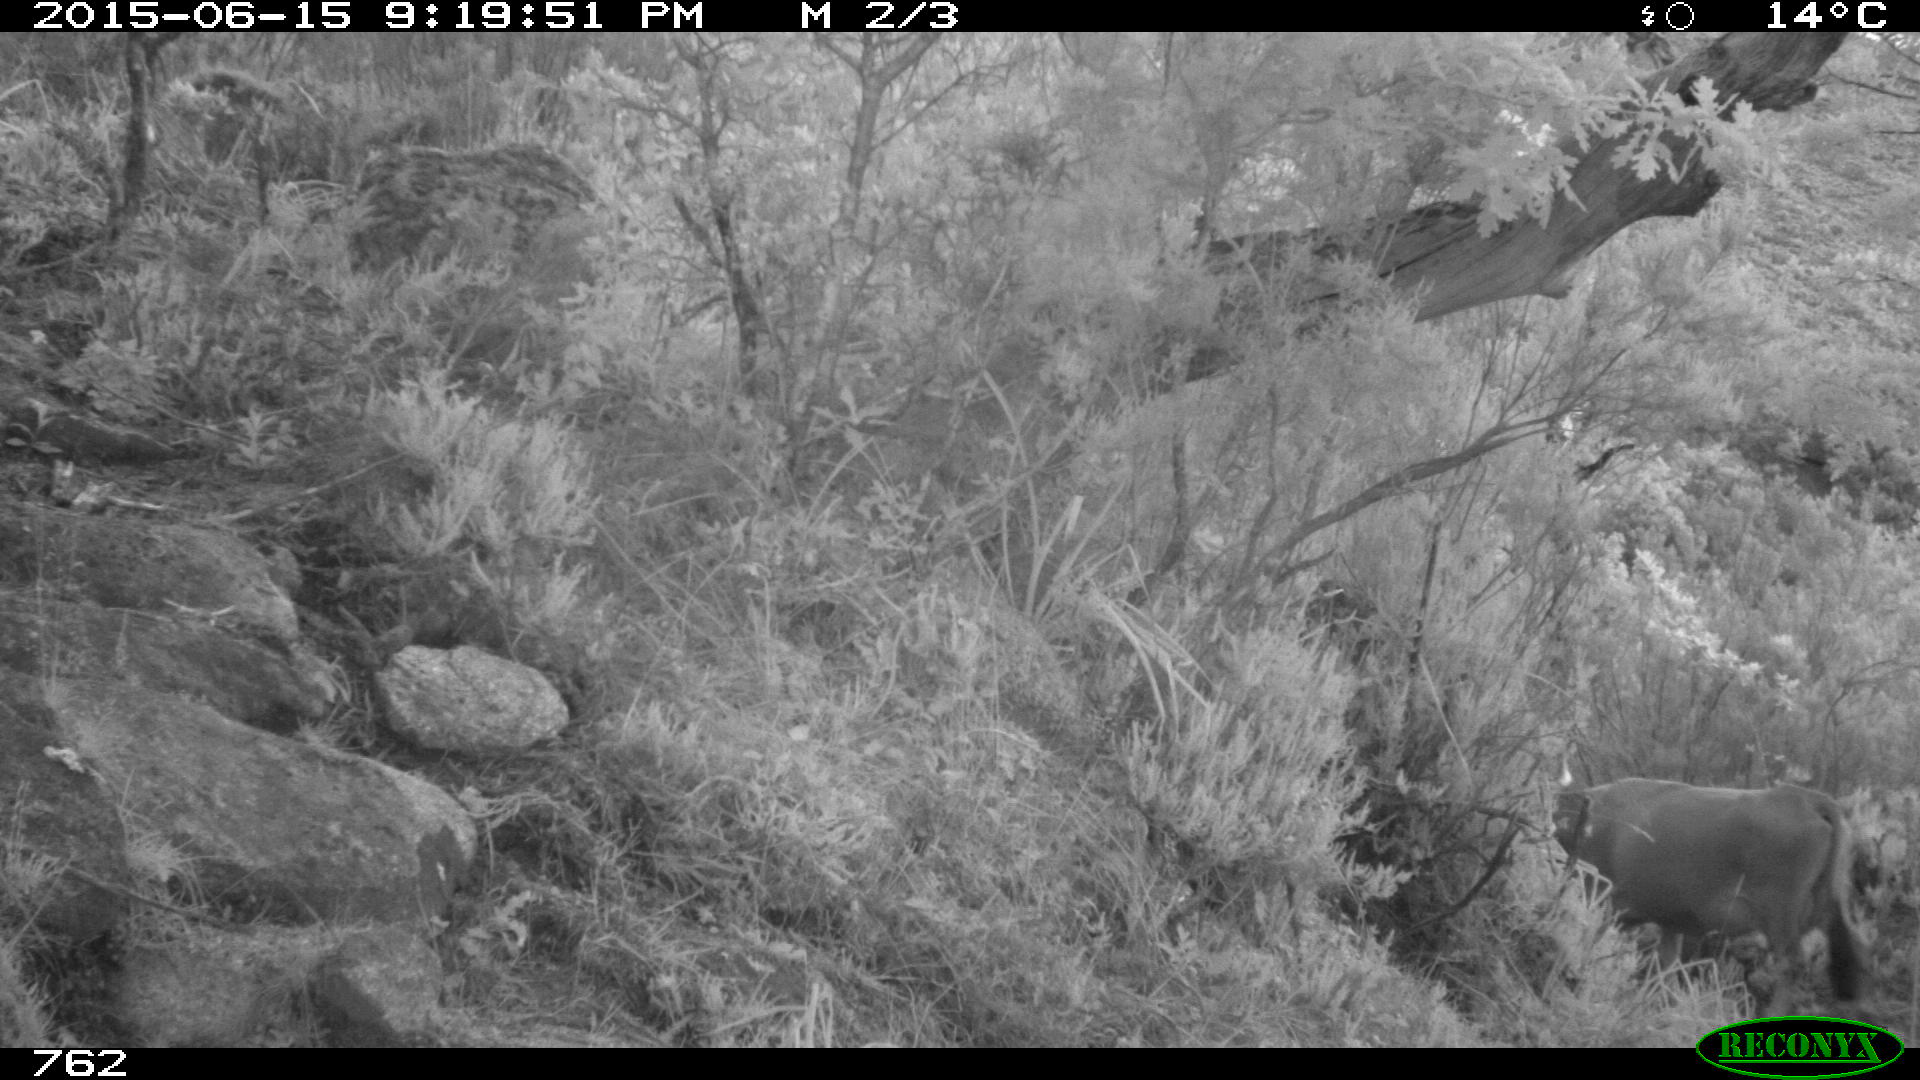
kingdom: Animalia
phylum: Chordata
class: Mammalia
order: Artiodactyla
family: Bovidae
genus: Bos
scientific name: Bos taurus
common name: Domesticated cattle
